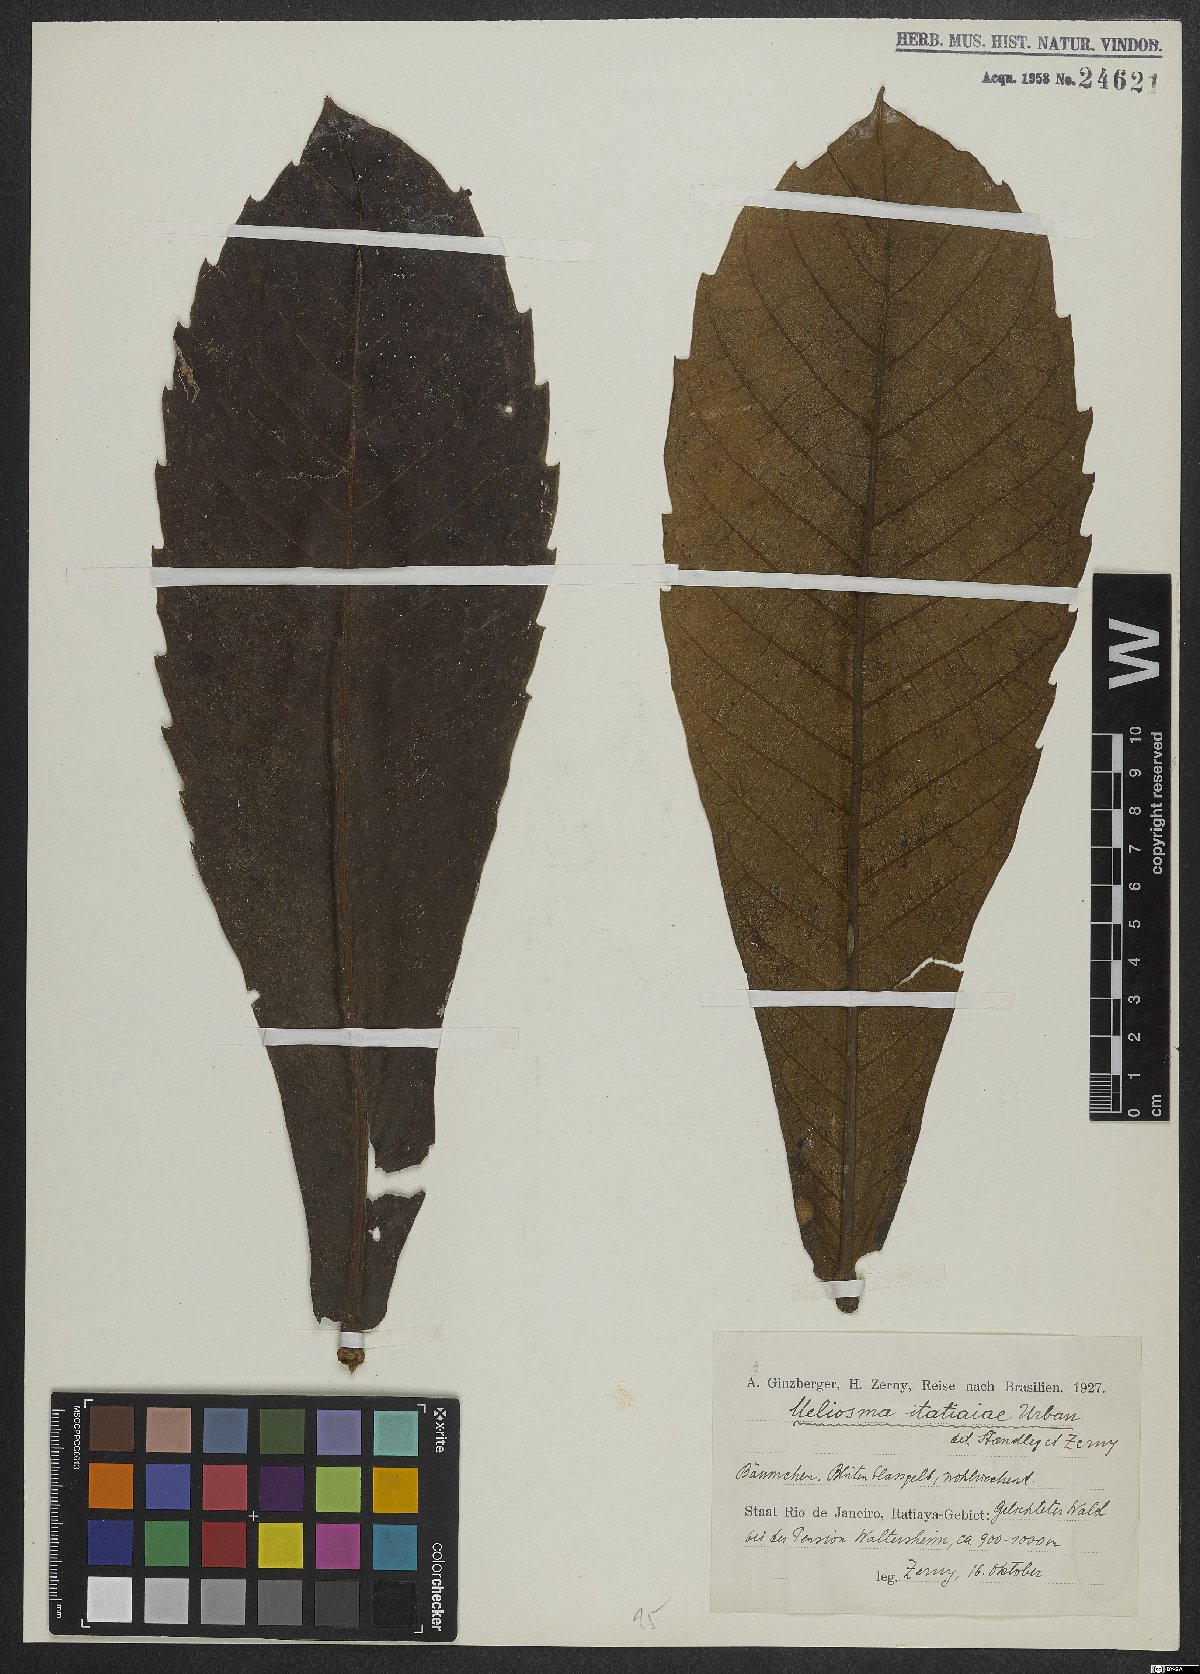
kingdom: Plantae
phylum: Tracheophyta
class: Magnoliopsida
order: Proteales
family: Sabiaceae
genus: Meliosma
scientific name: Meliosma itatiaiae
